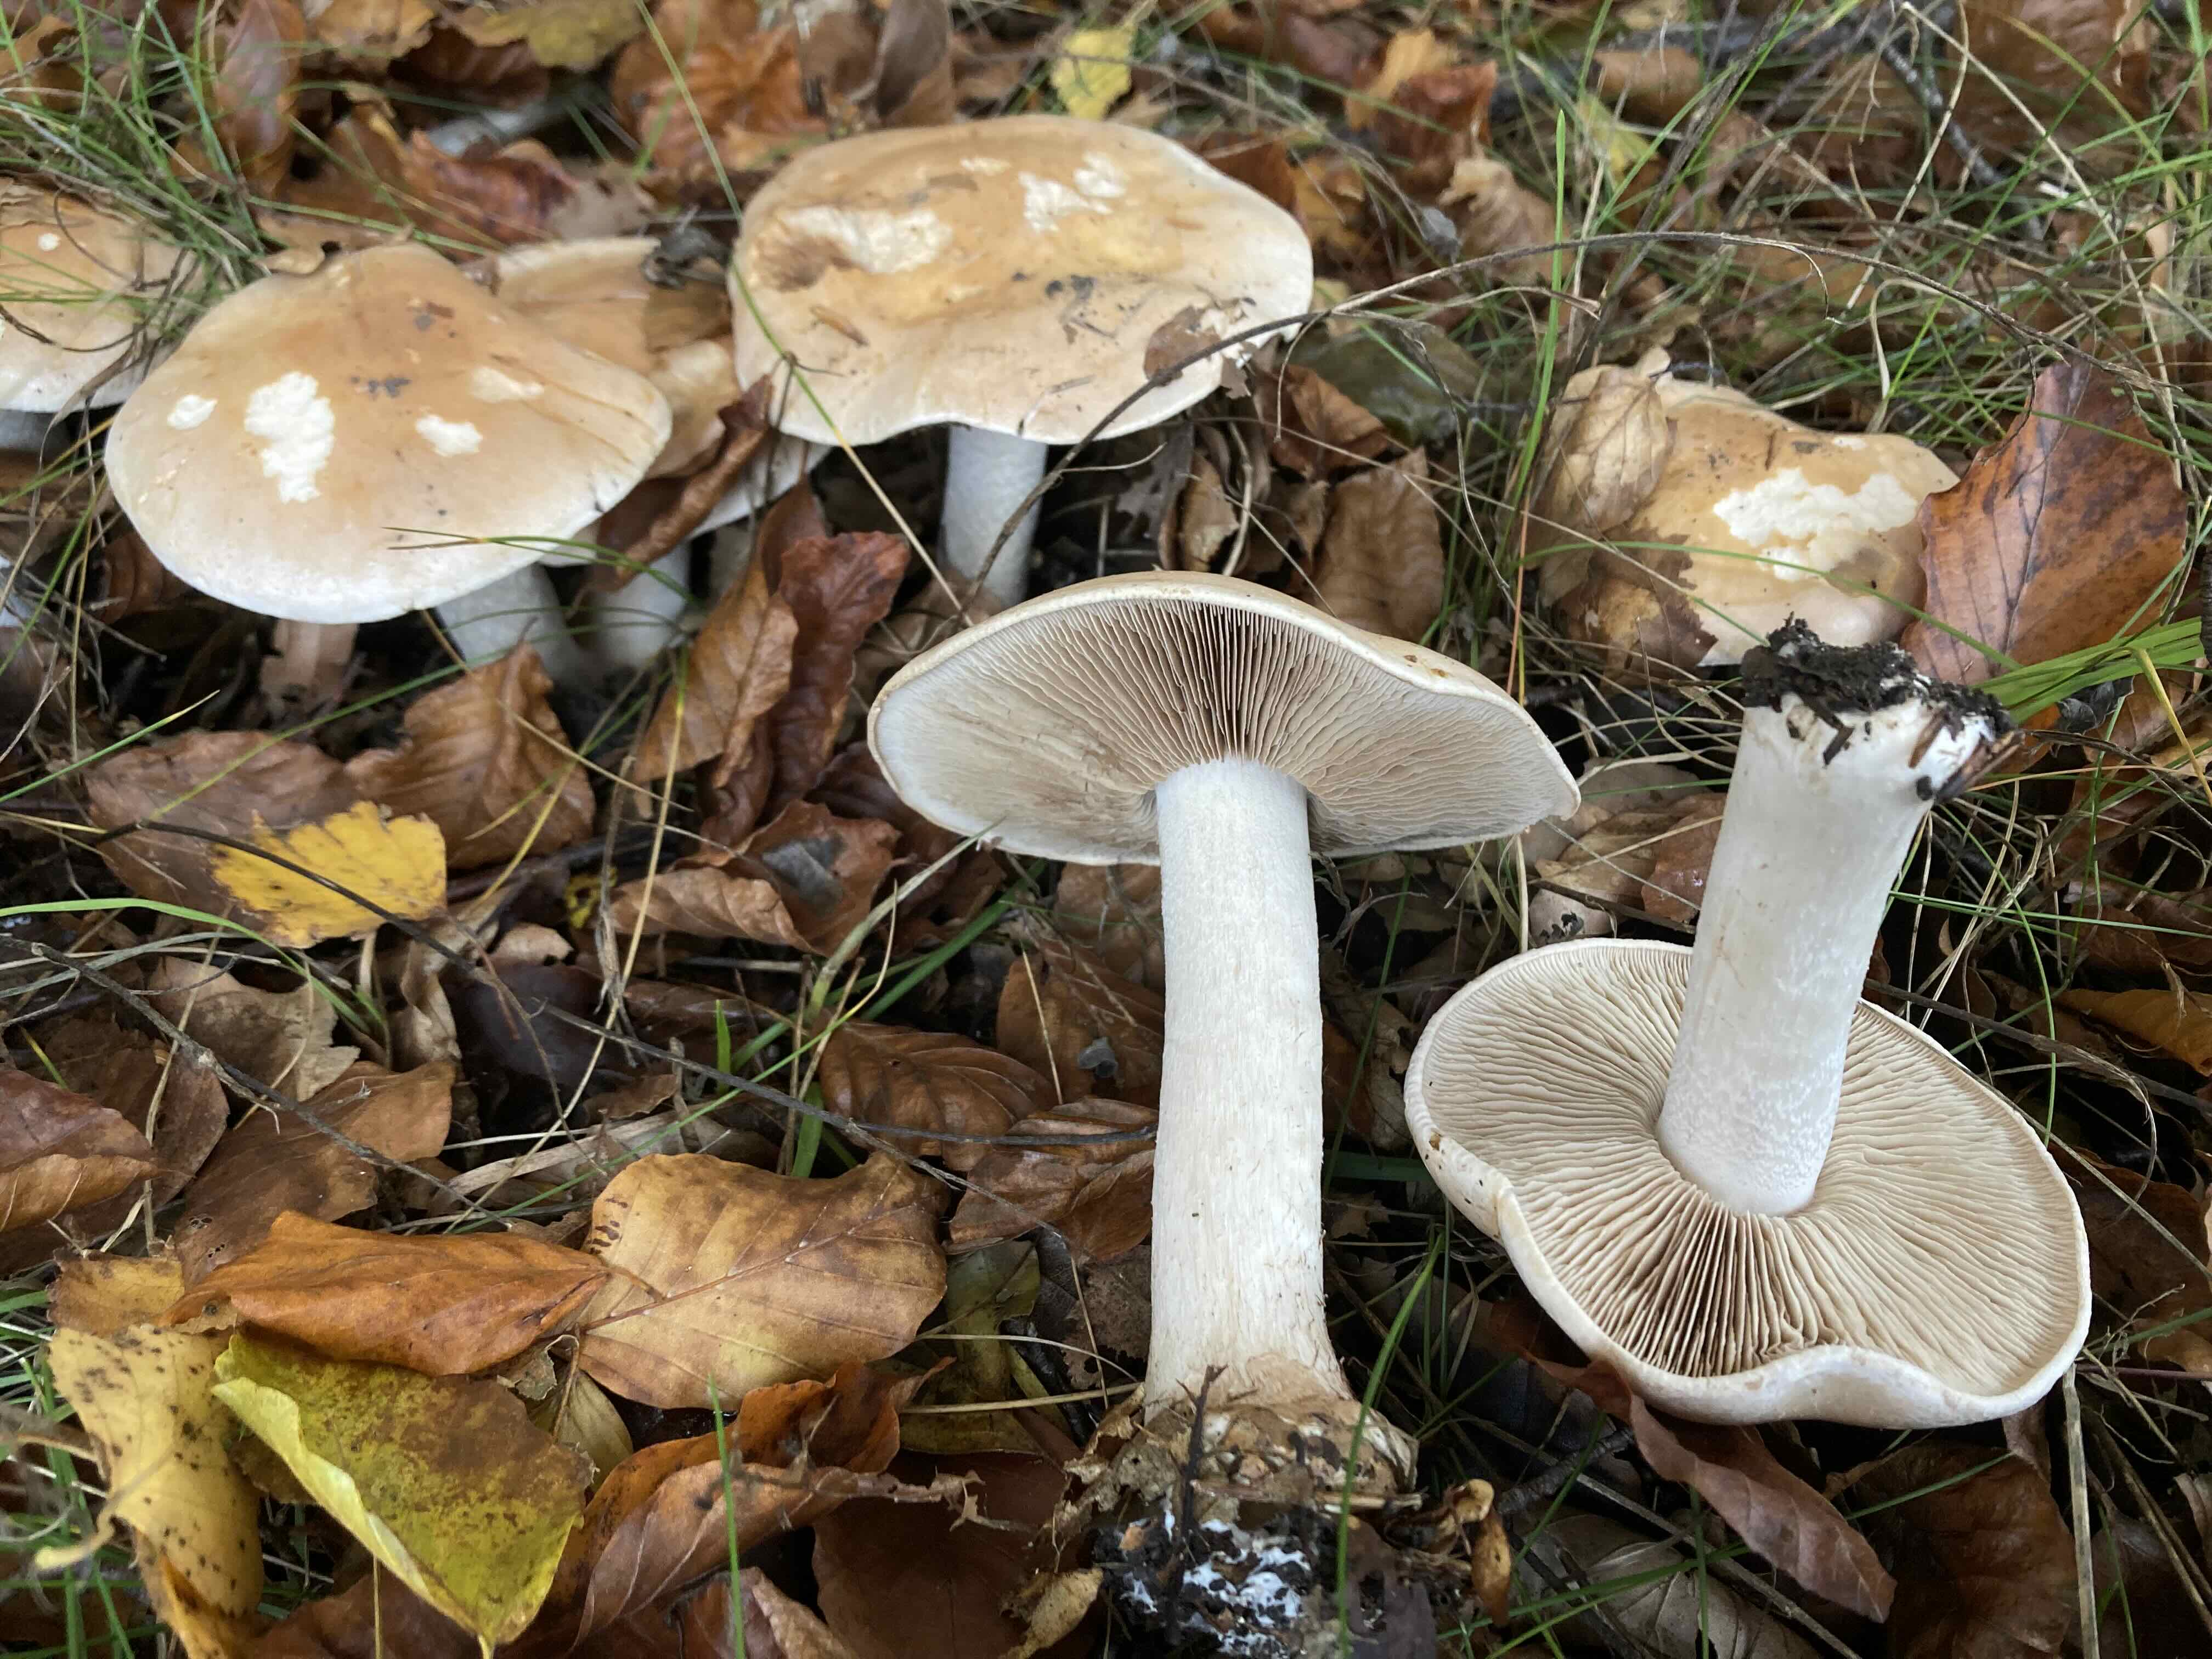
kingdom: Fungi
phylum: Basidiomycota
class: Agaricomycetes
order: Agaricales
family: Hymenogastraceae
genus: Hebeloma
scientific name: Hebeloma sinapizans
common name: ræddike-tåreblad
